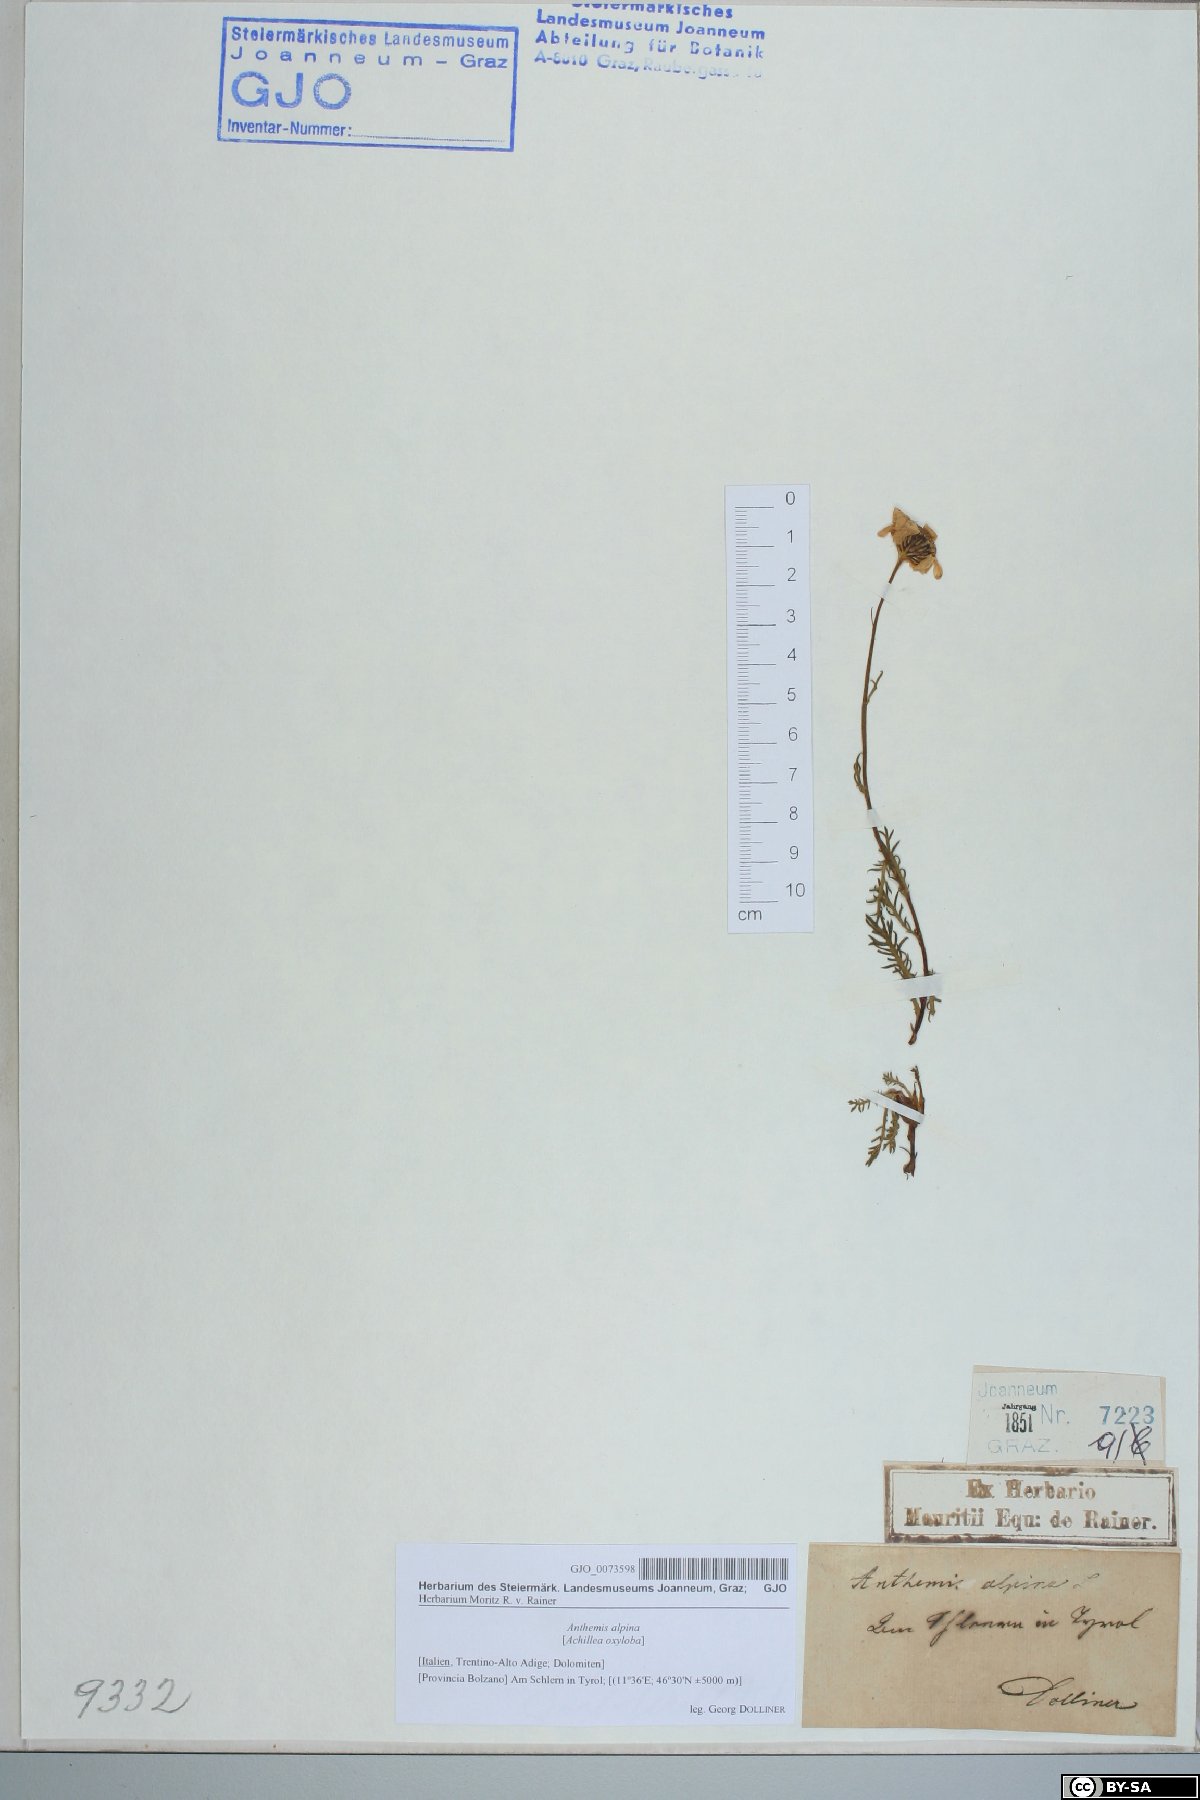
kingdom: Plantae
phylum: Tracheophyta
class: Magnoliopsida
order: Asterales
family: Asteraceae
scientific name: Asteraceae
